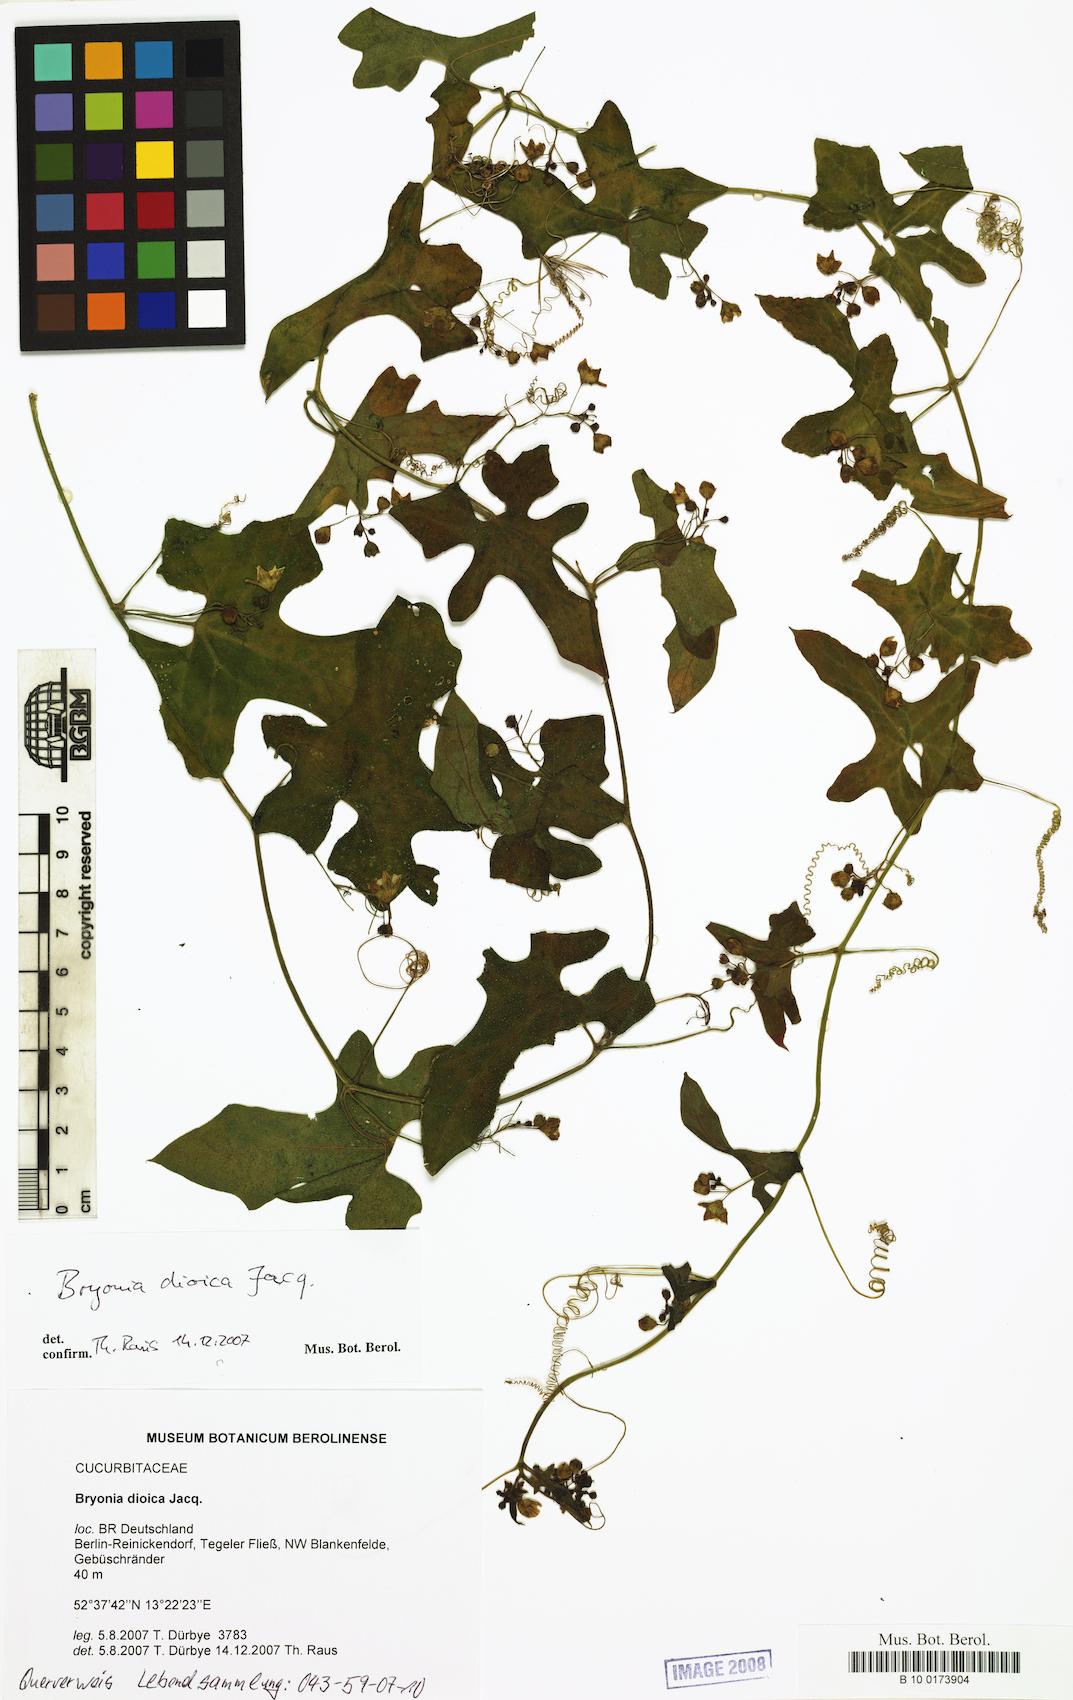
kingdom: Plantae
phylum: Tracheophyta
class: Magnoliopsida
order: Cucurbitales
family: Cucurbitaceae
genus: Bryonia
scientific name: Bryonia dioica
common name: White bryony
